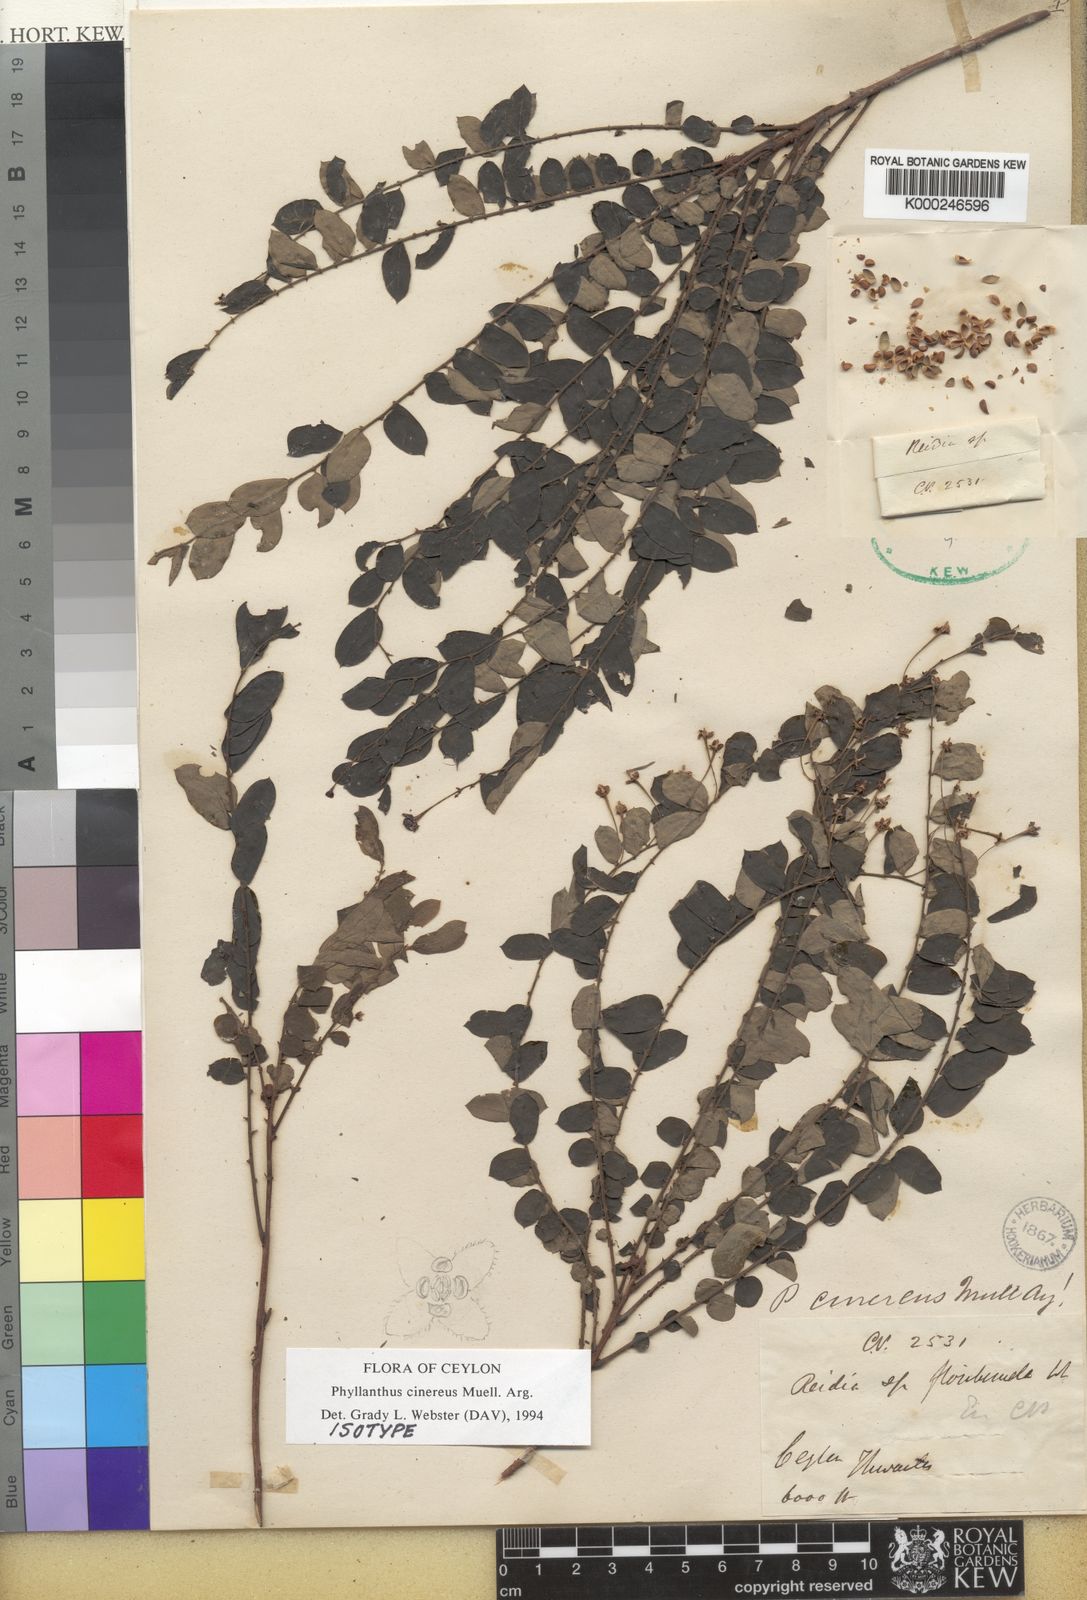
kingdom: Plantae
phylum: Tracheophyta
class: Magnoliopsida
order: Malpighiales
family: Phyllanthaceae
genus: Phyllanthus
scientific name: Phyllanthus
